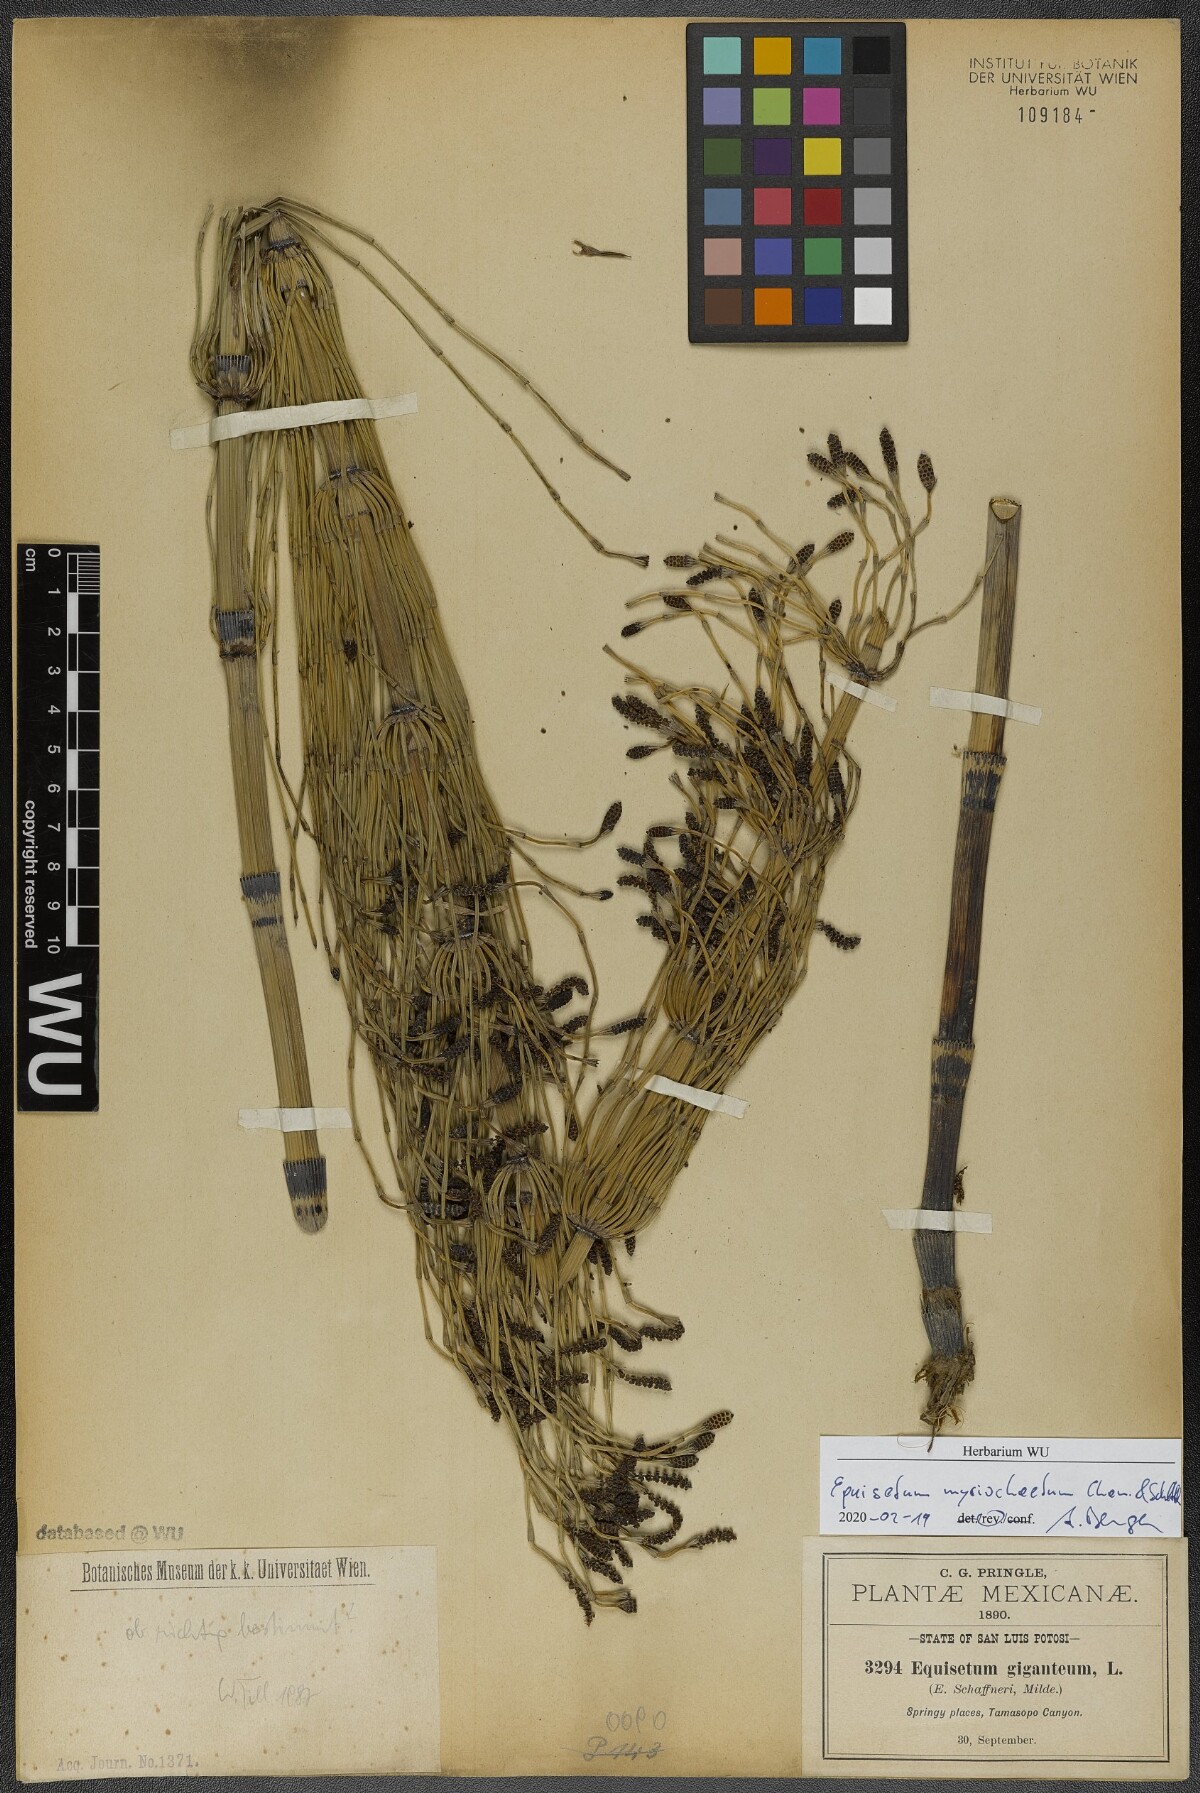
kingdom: Plantae
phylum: Tracheophyta
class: Polypodiopsida
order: Equisetales
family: Equisetaceae
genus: Equisetum
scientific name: Equisetum myriochaetum
